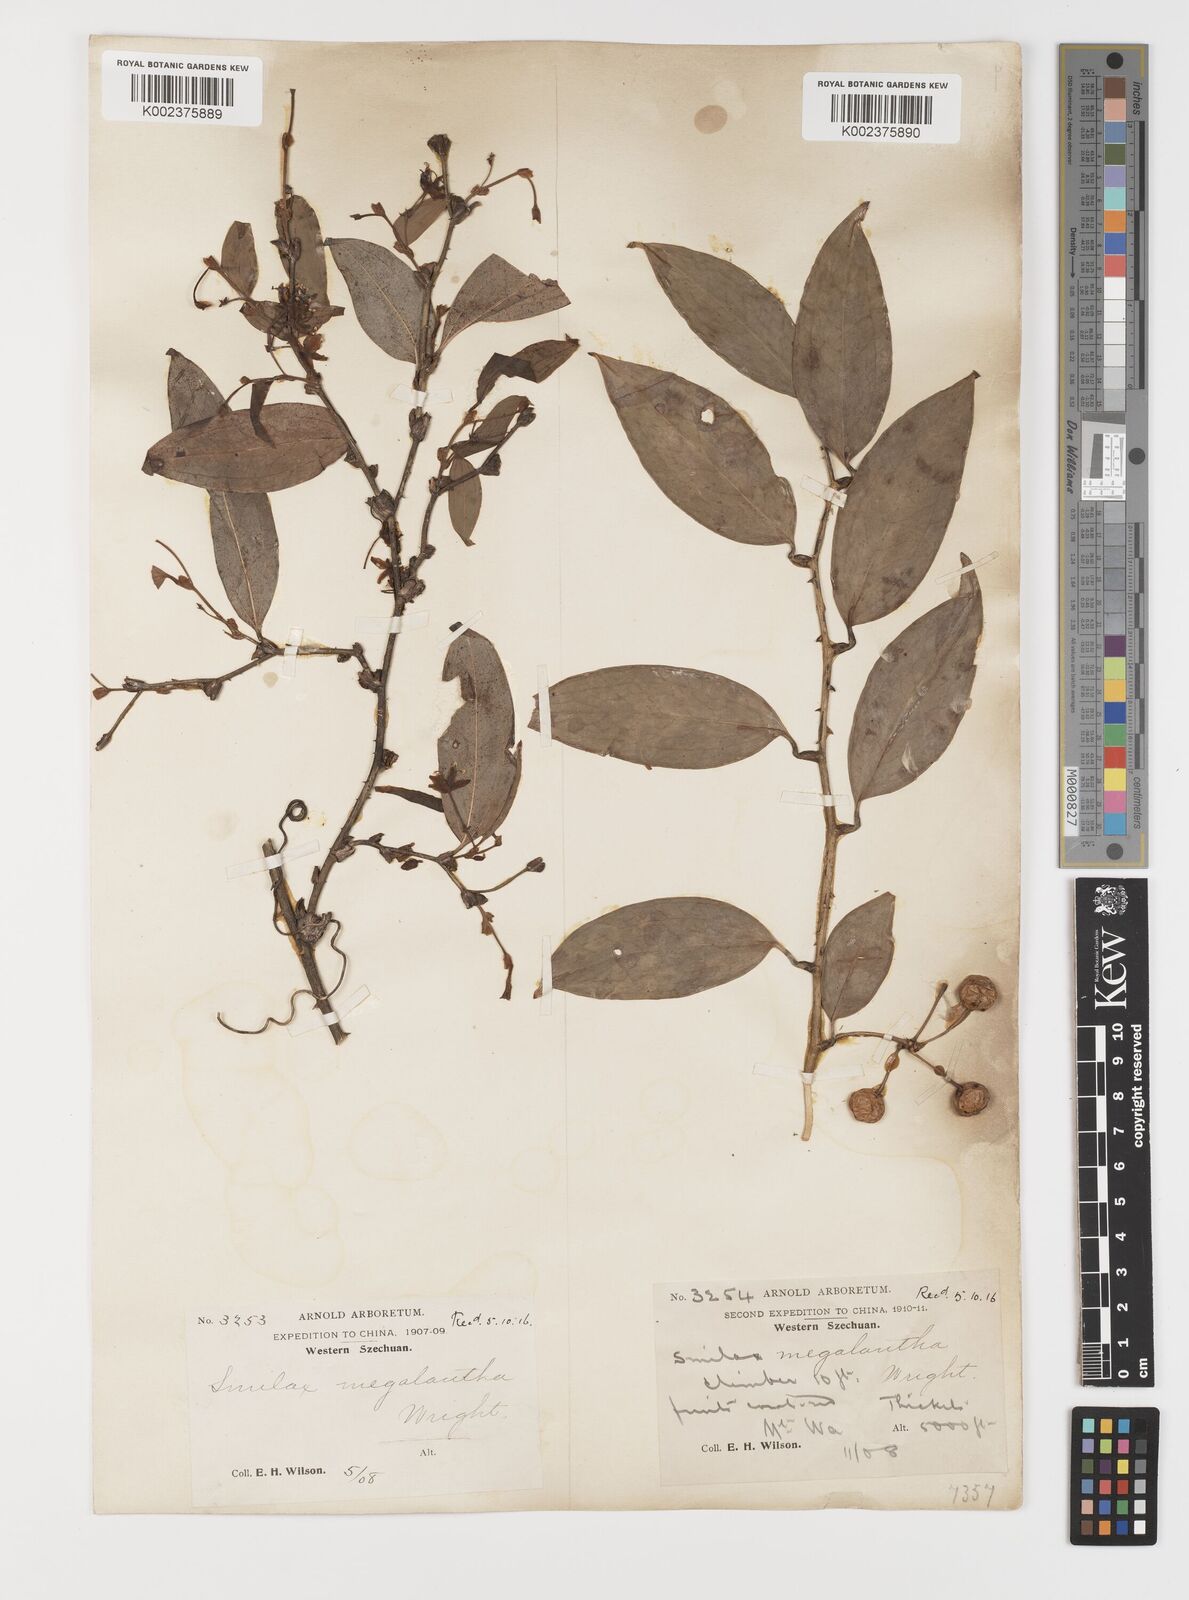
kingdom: Plantae
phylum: Tracheophyta
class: Liliopsida
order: Liliales
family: Smilacaceae
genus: Smilax
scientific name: Smilax megalantha
